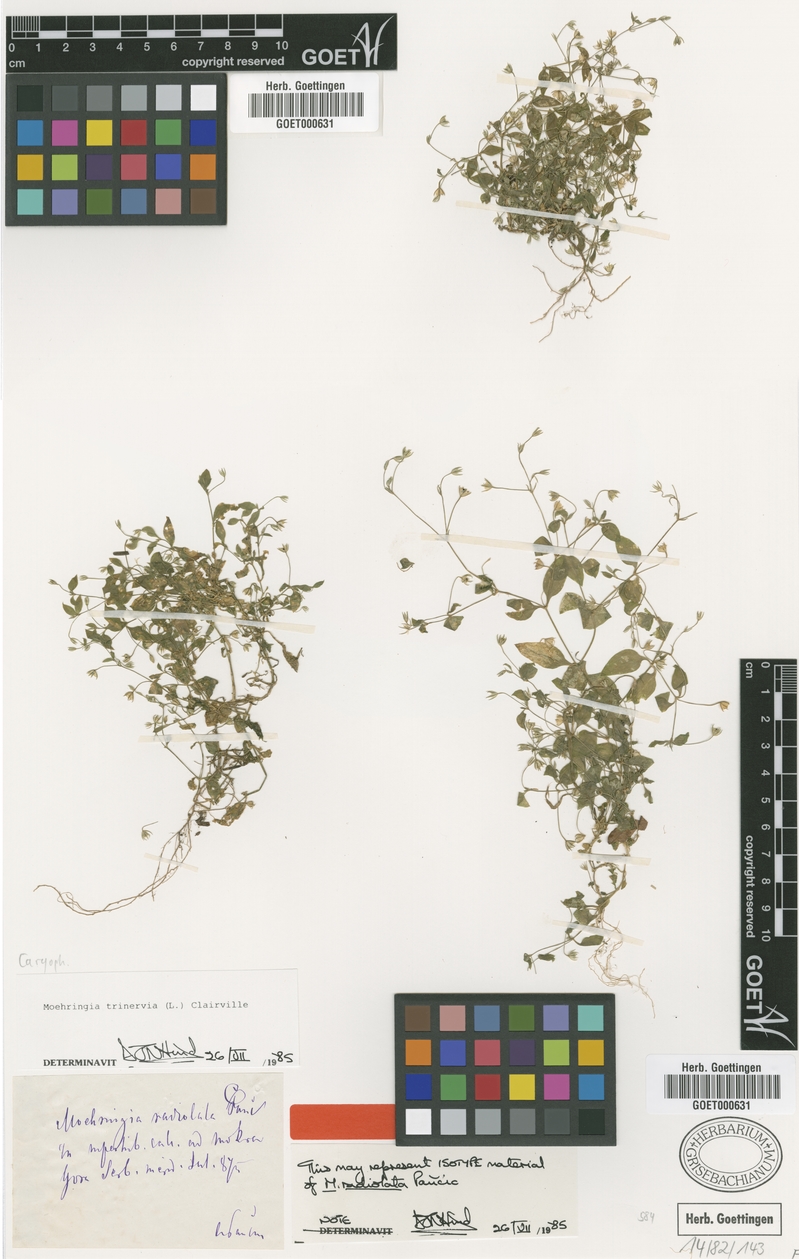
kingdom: Plantae
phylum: Tracheophyta
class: Magnoliopsida
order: Caryophyllales
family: Caryophyllaceae
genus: Moehringia
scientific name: Moehringia trinervia
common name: Three-nerved sandwort
